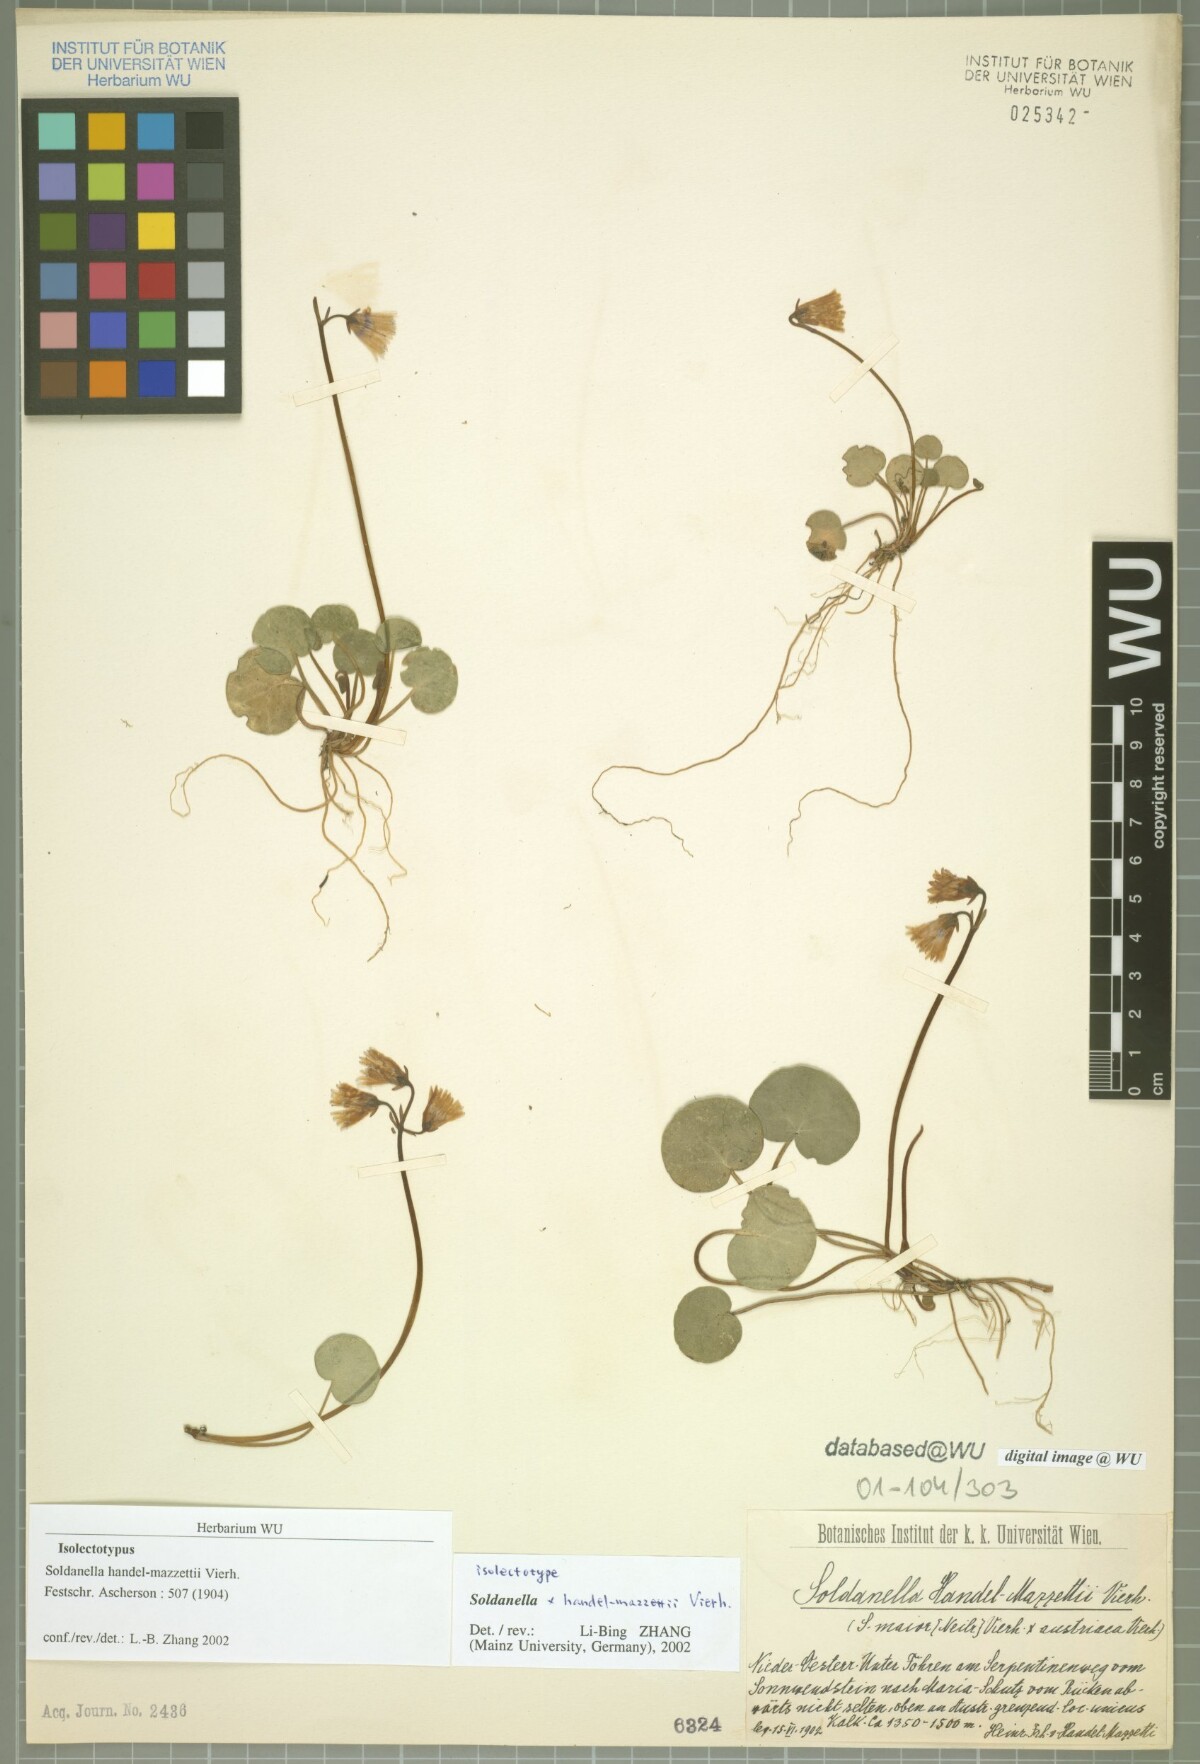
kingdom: Plantae
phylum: Tracheophyta
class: Magnoliopsida
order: Ericales
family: Primulaceae
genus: Soldanella
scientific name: Soldanella handel-mazzettii
